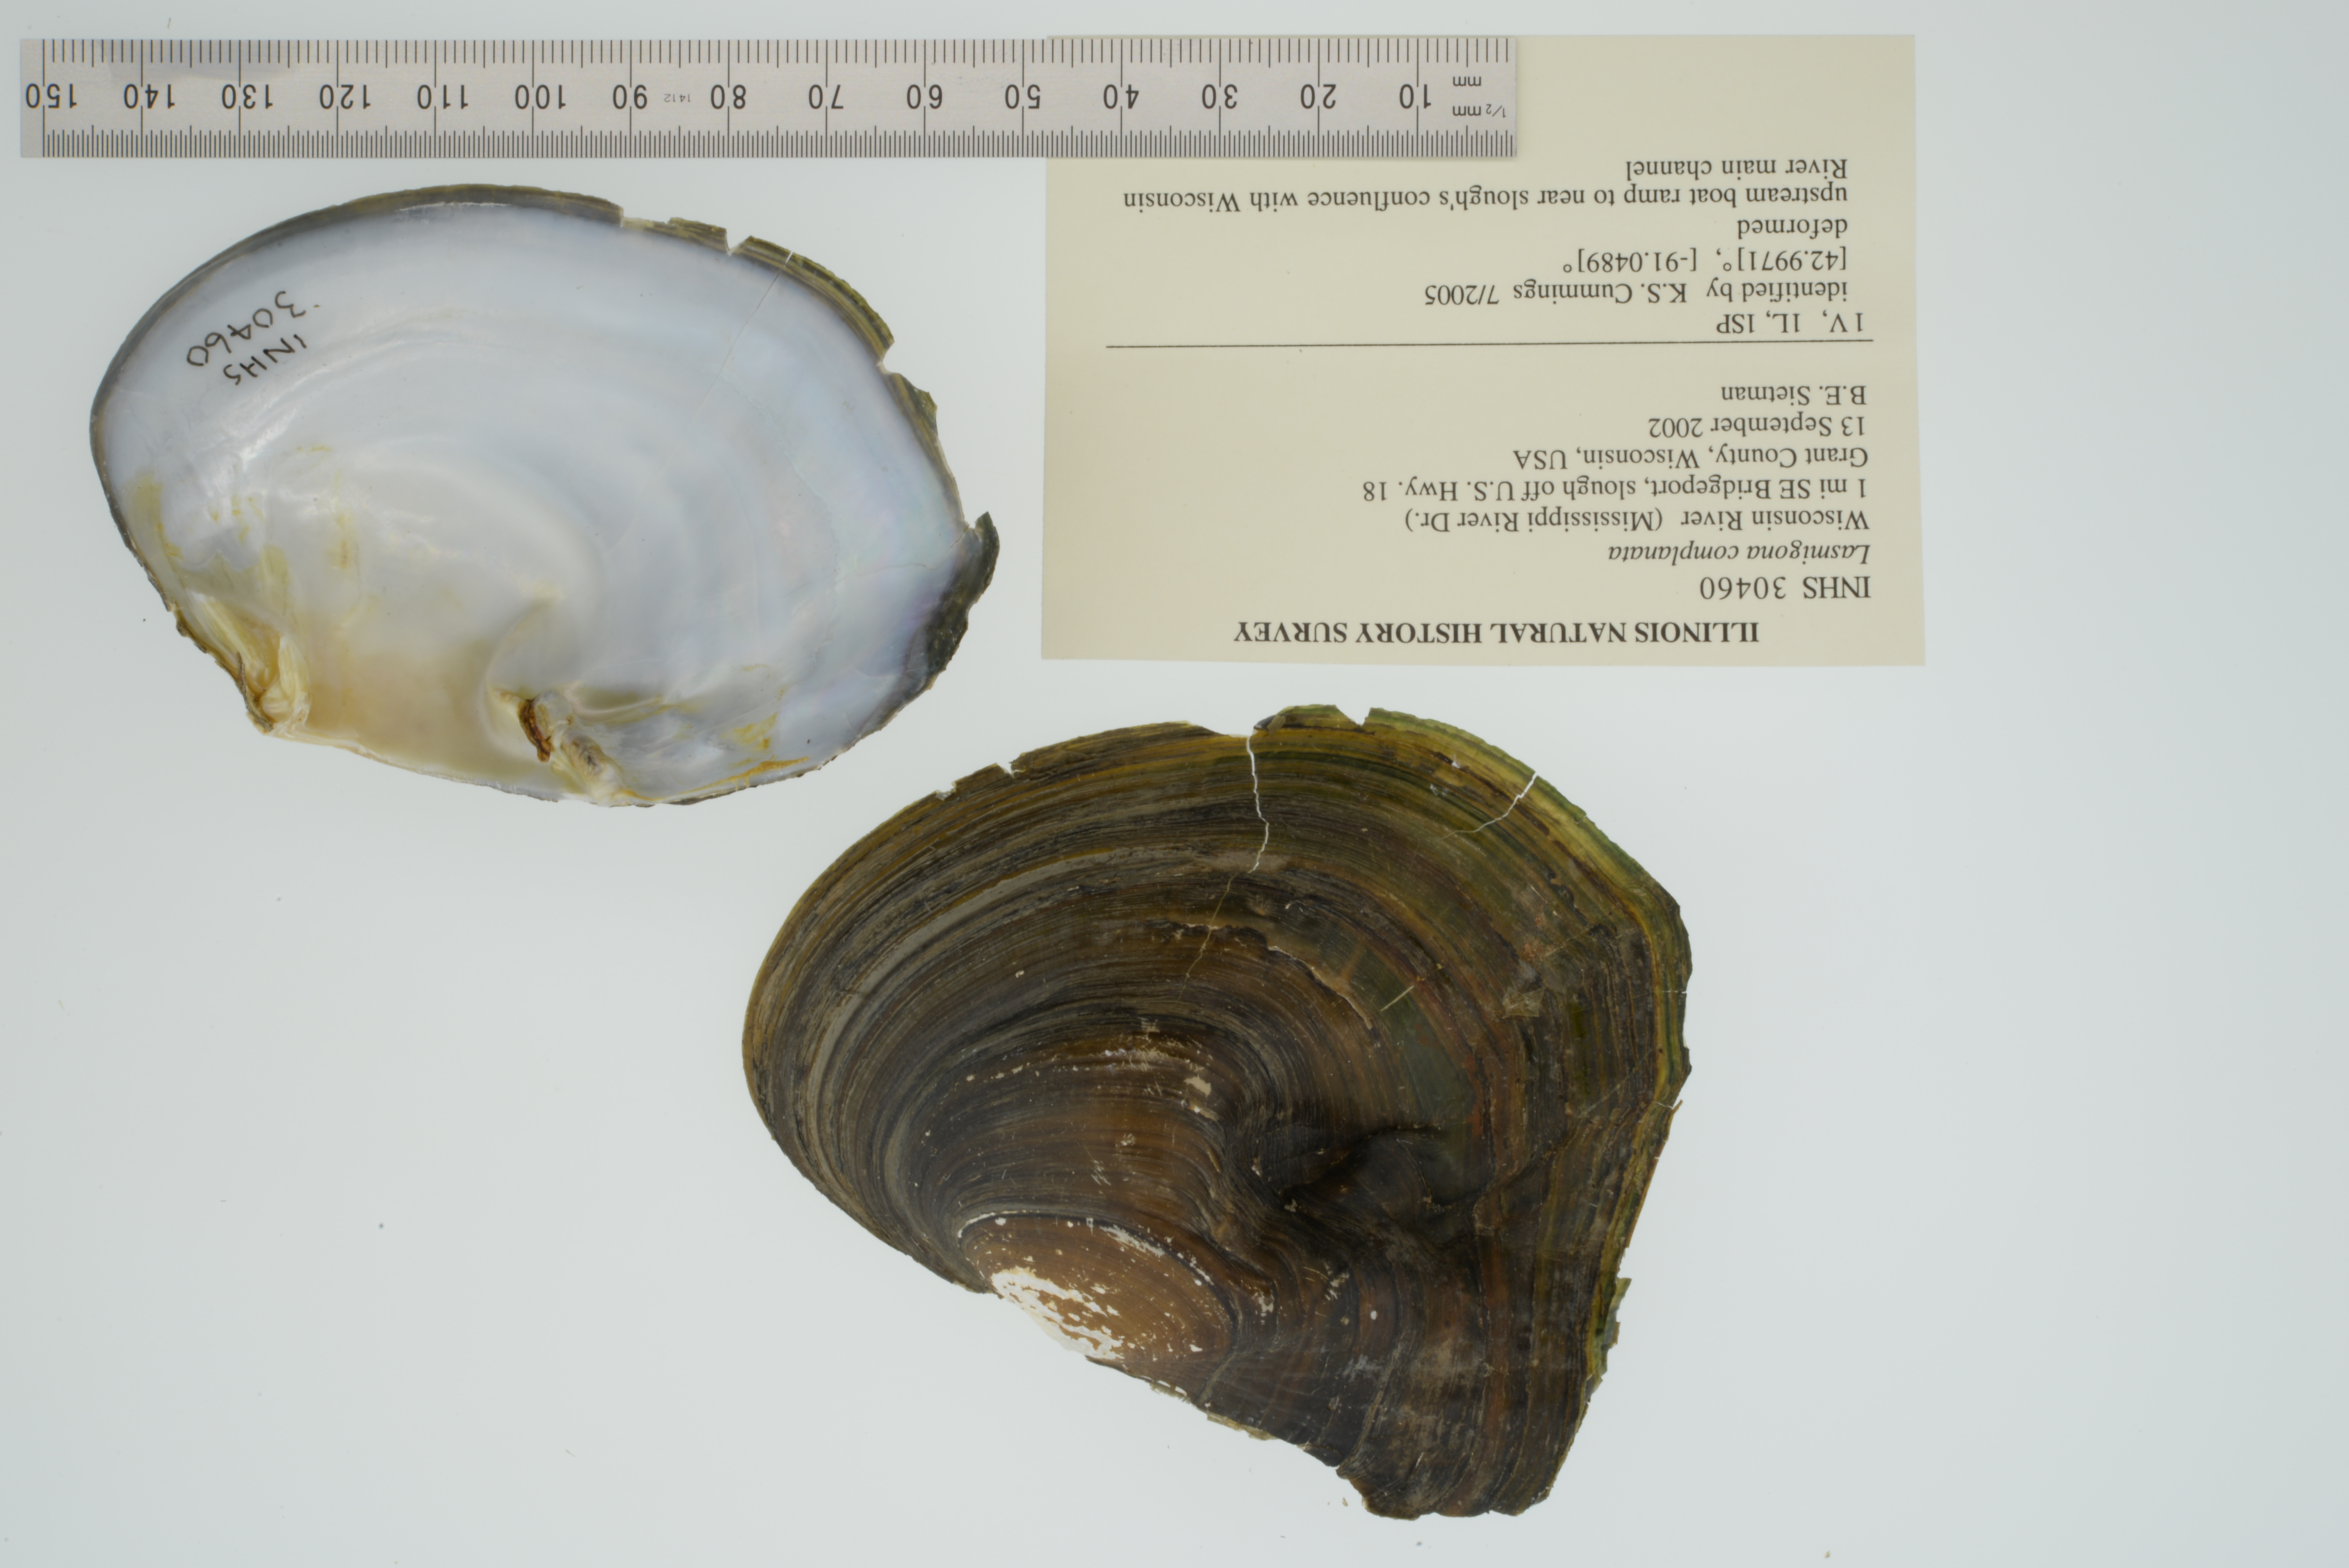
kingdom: Animalia
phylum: Mollusca
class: Bivalvia
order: Unionida
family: Unionidae
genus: Lasmigona
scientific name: Lasmigona complanata
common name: White heelsplitter
